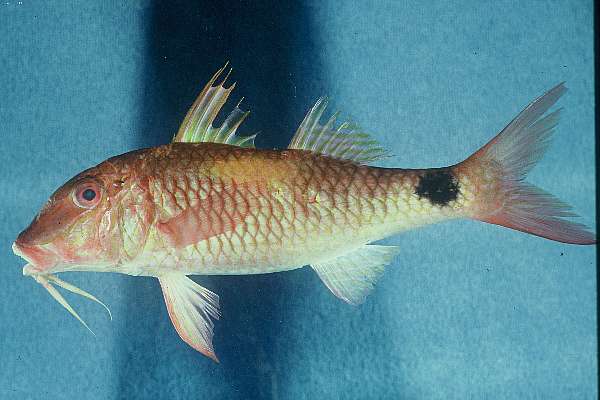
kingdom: Animalia
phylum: Chordata
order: Perciformes
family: Mullidae
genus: Parupeneus
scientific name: Parupeneus indicus
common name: Indian goatfish
